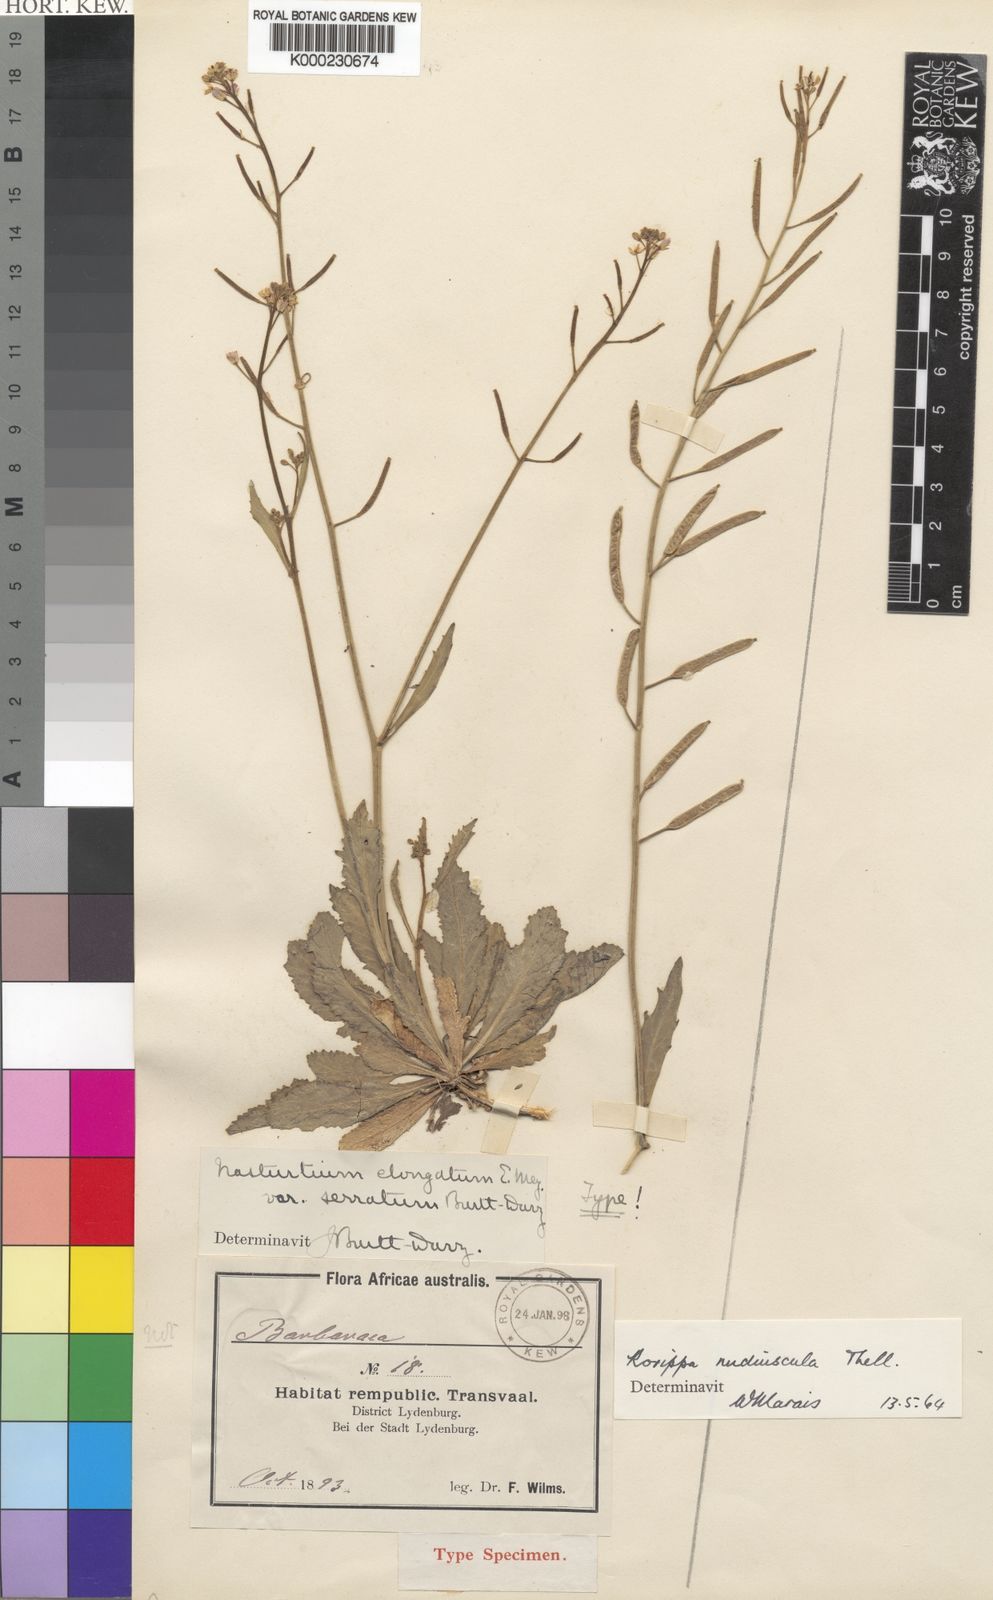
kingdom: Plantae
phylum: Tracheophyta
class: Magnoliopsida
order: Brassicales
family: Brassicaceae
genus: Rorippa
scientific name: Rorippa nudiuscula
